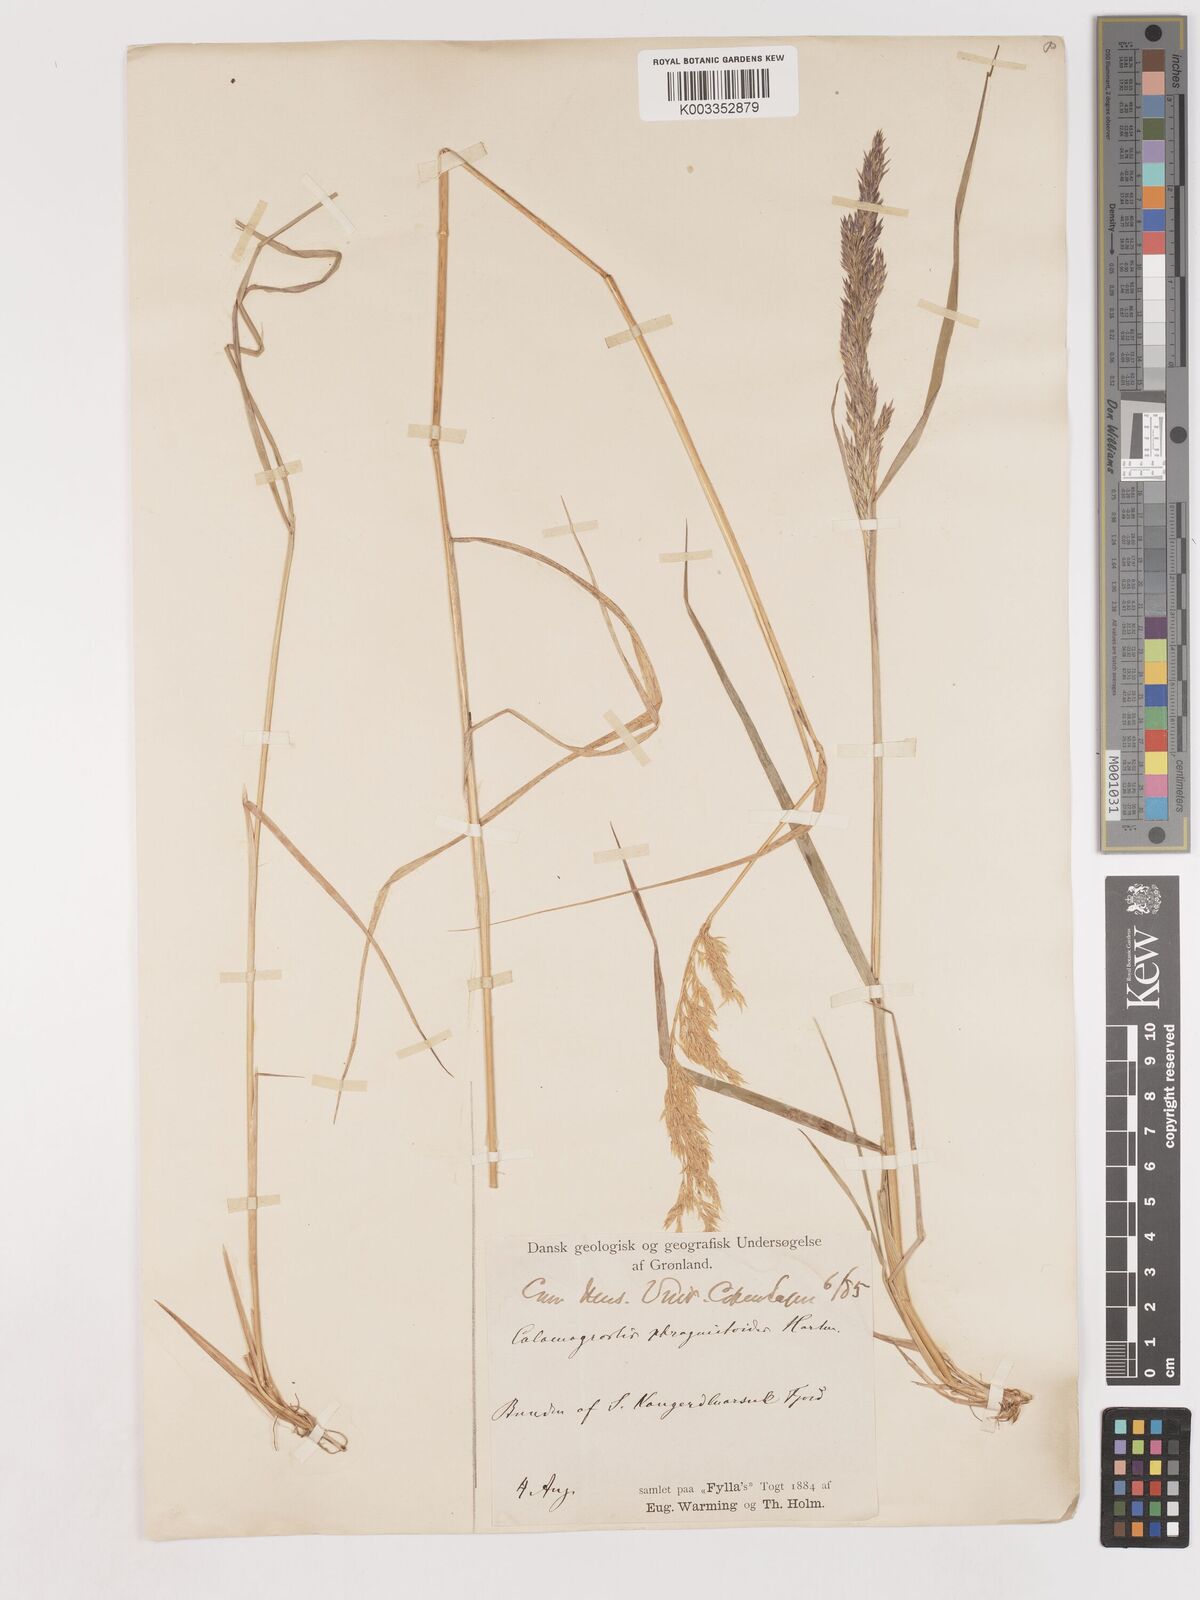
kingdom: Plantae
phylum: Tracheophyta
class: Liliopsida
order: Poales
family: Poaceae
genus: Calamagrostis
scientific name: Calamagrostis purpurea
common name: Scandinavian small-reed
